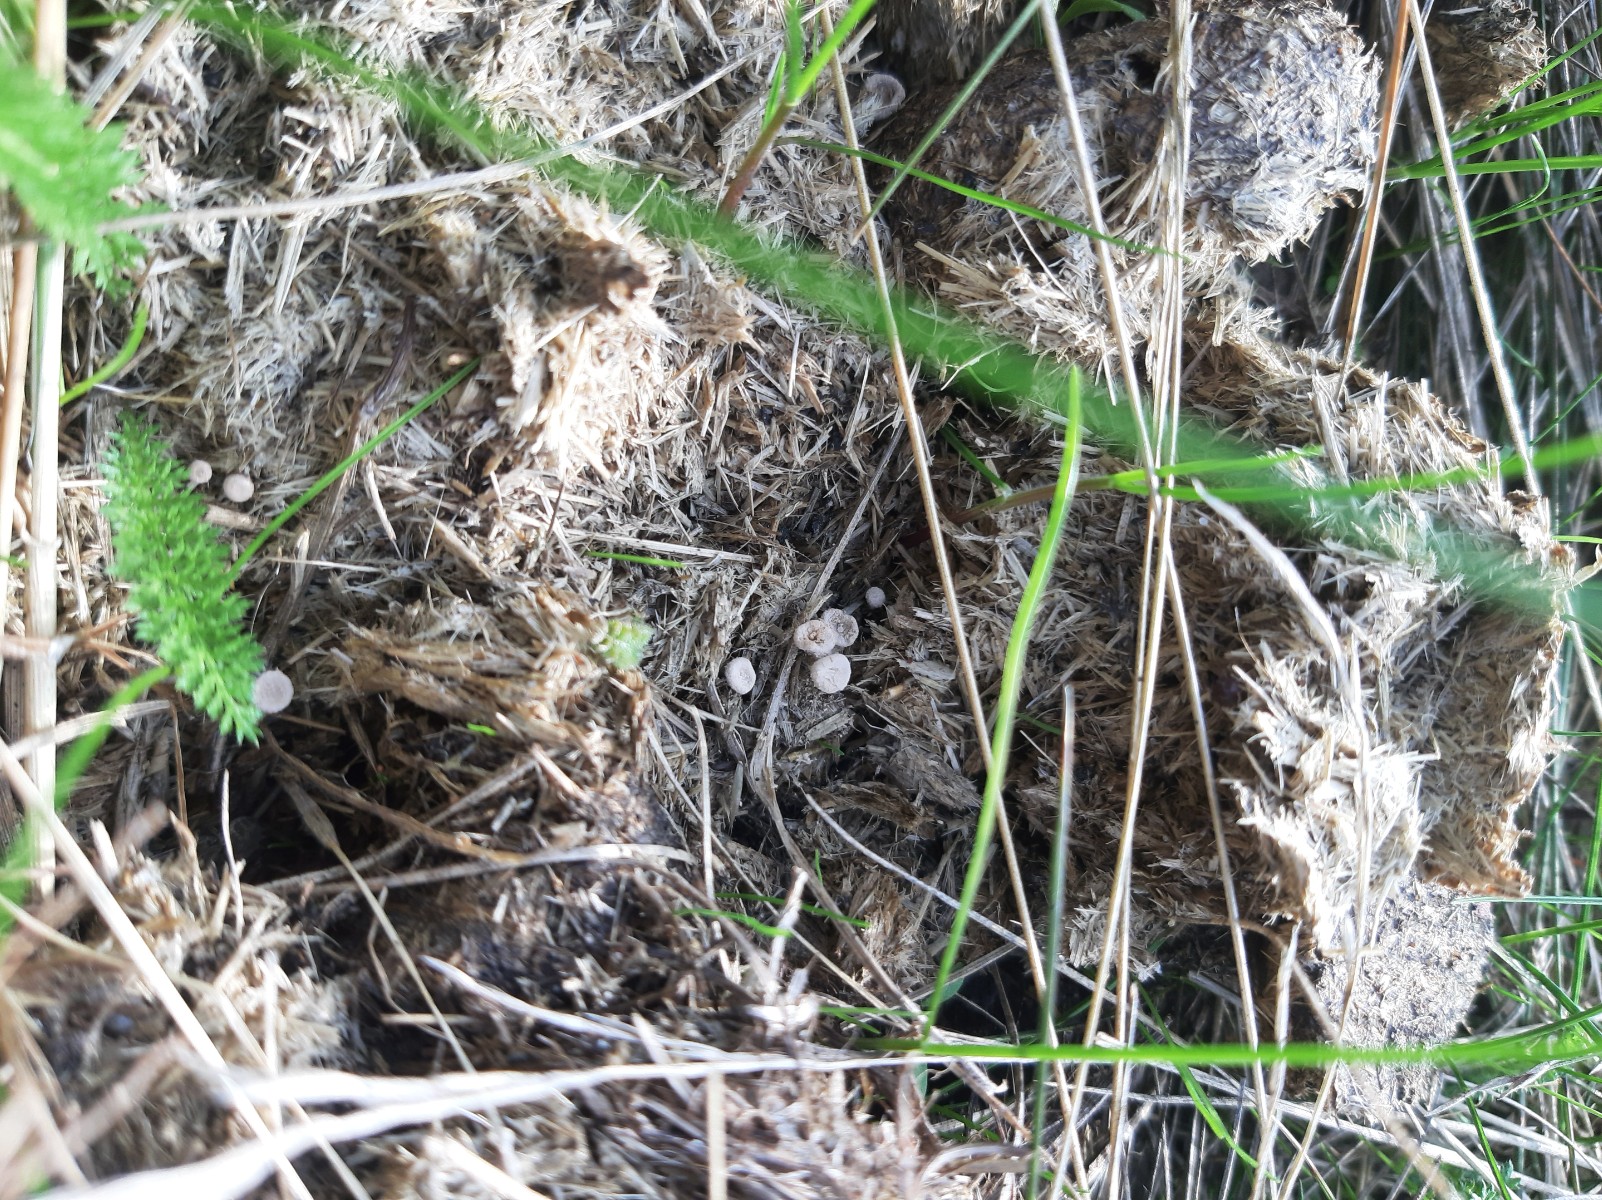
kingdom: Fungi
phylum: Ascomycota
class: Sordariomycetes
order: Xylariales
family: Xylariaceae
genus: Poronia
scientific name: Poronia punctata
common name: stor priksvamp
